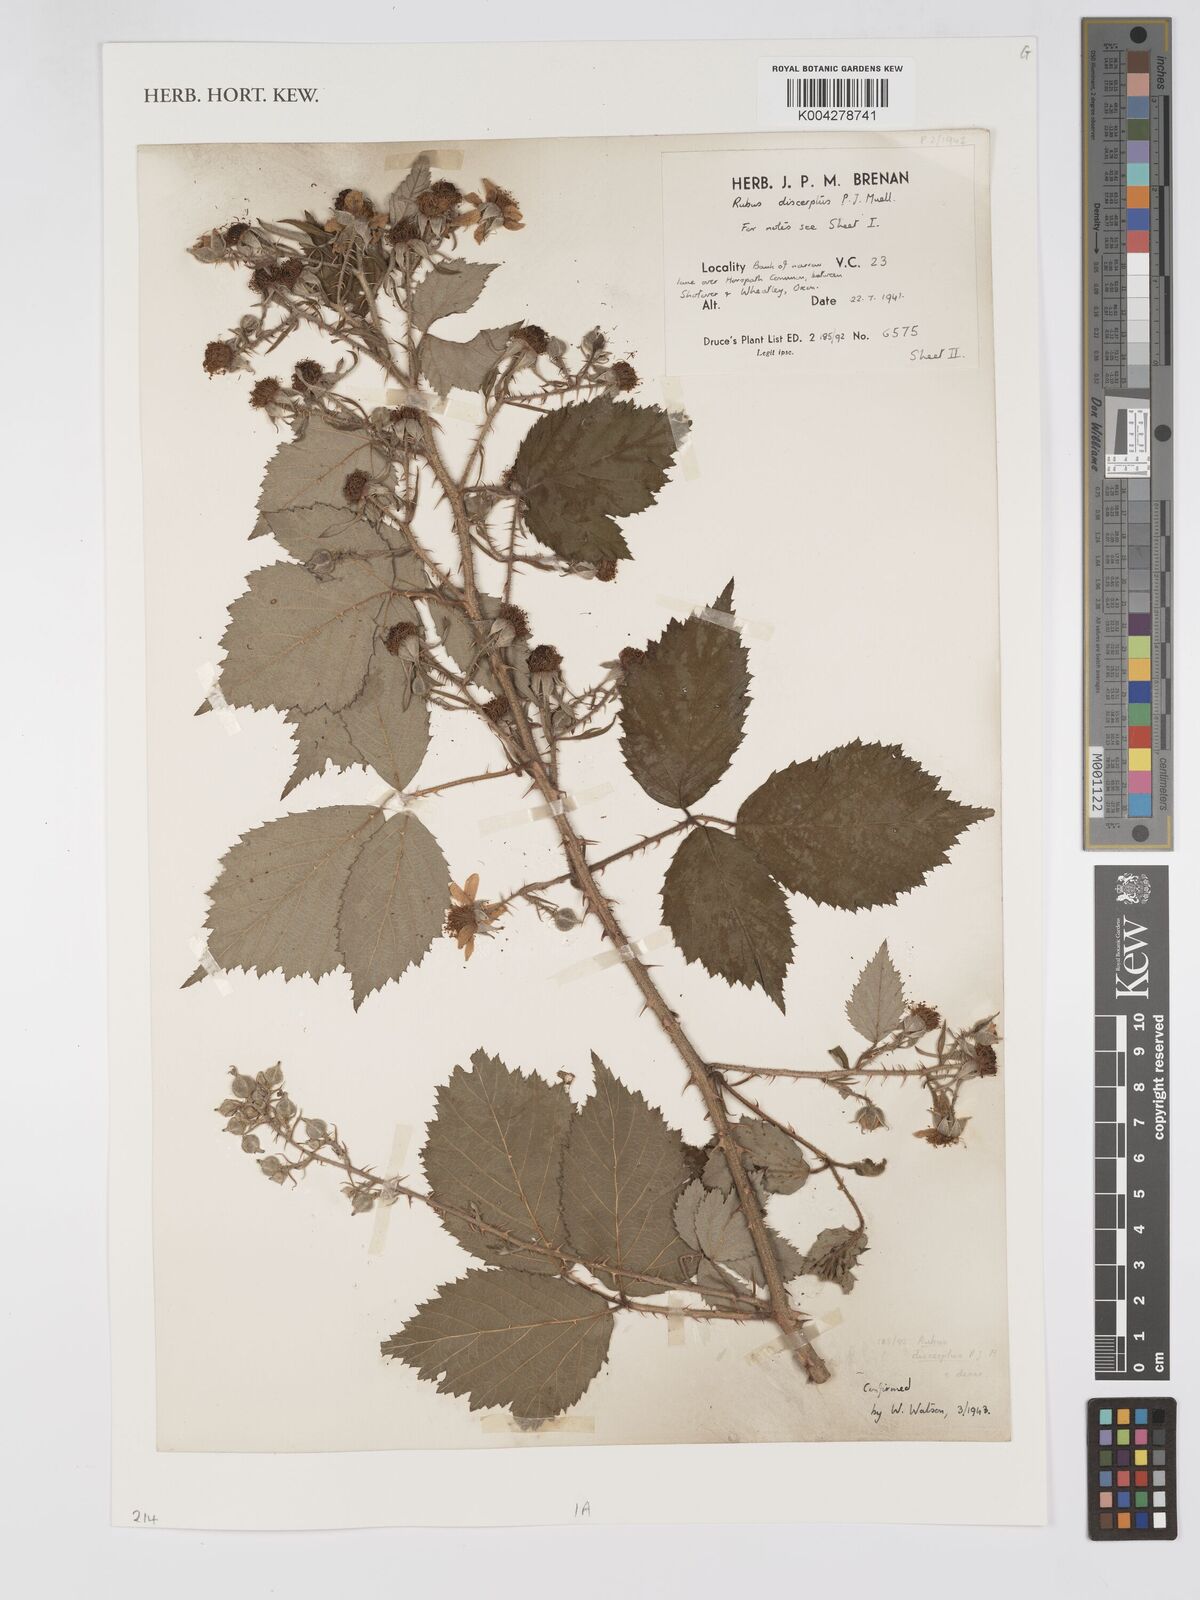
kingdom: Plantae
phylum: Tracheophyta
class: Magnoliopsida
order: Rosales
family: Rosaceae
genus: Rubus
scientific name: Rubus echinatus
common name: Echinate bramble
